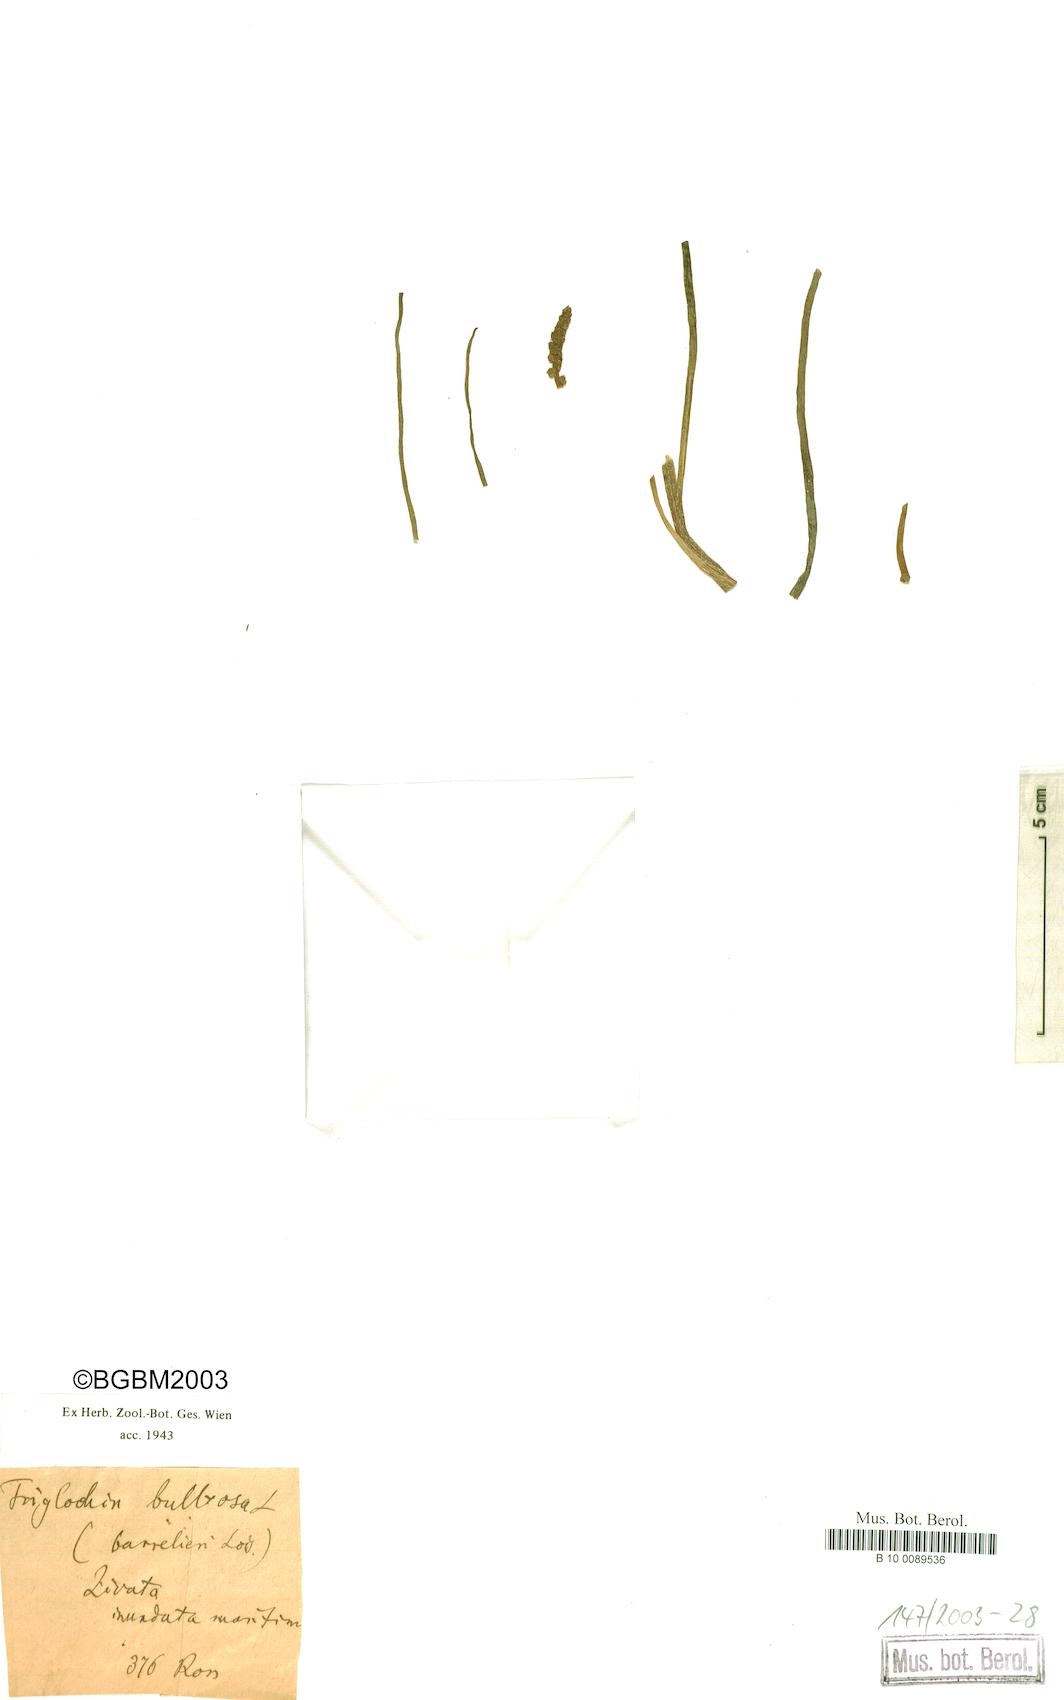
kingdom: Plantae
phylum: Tracheophyta
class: Liliopsida
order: Alismatales
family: Juncaginaceae
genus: Triglochin
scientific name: Triglochin bulbosa
